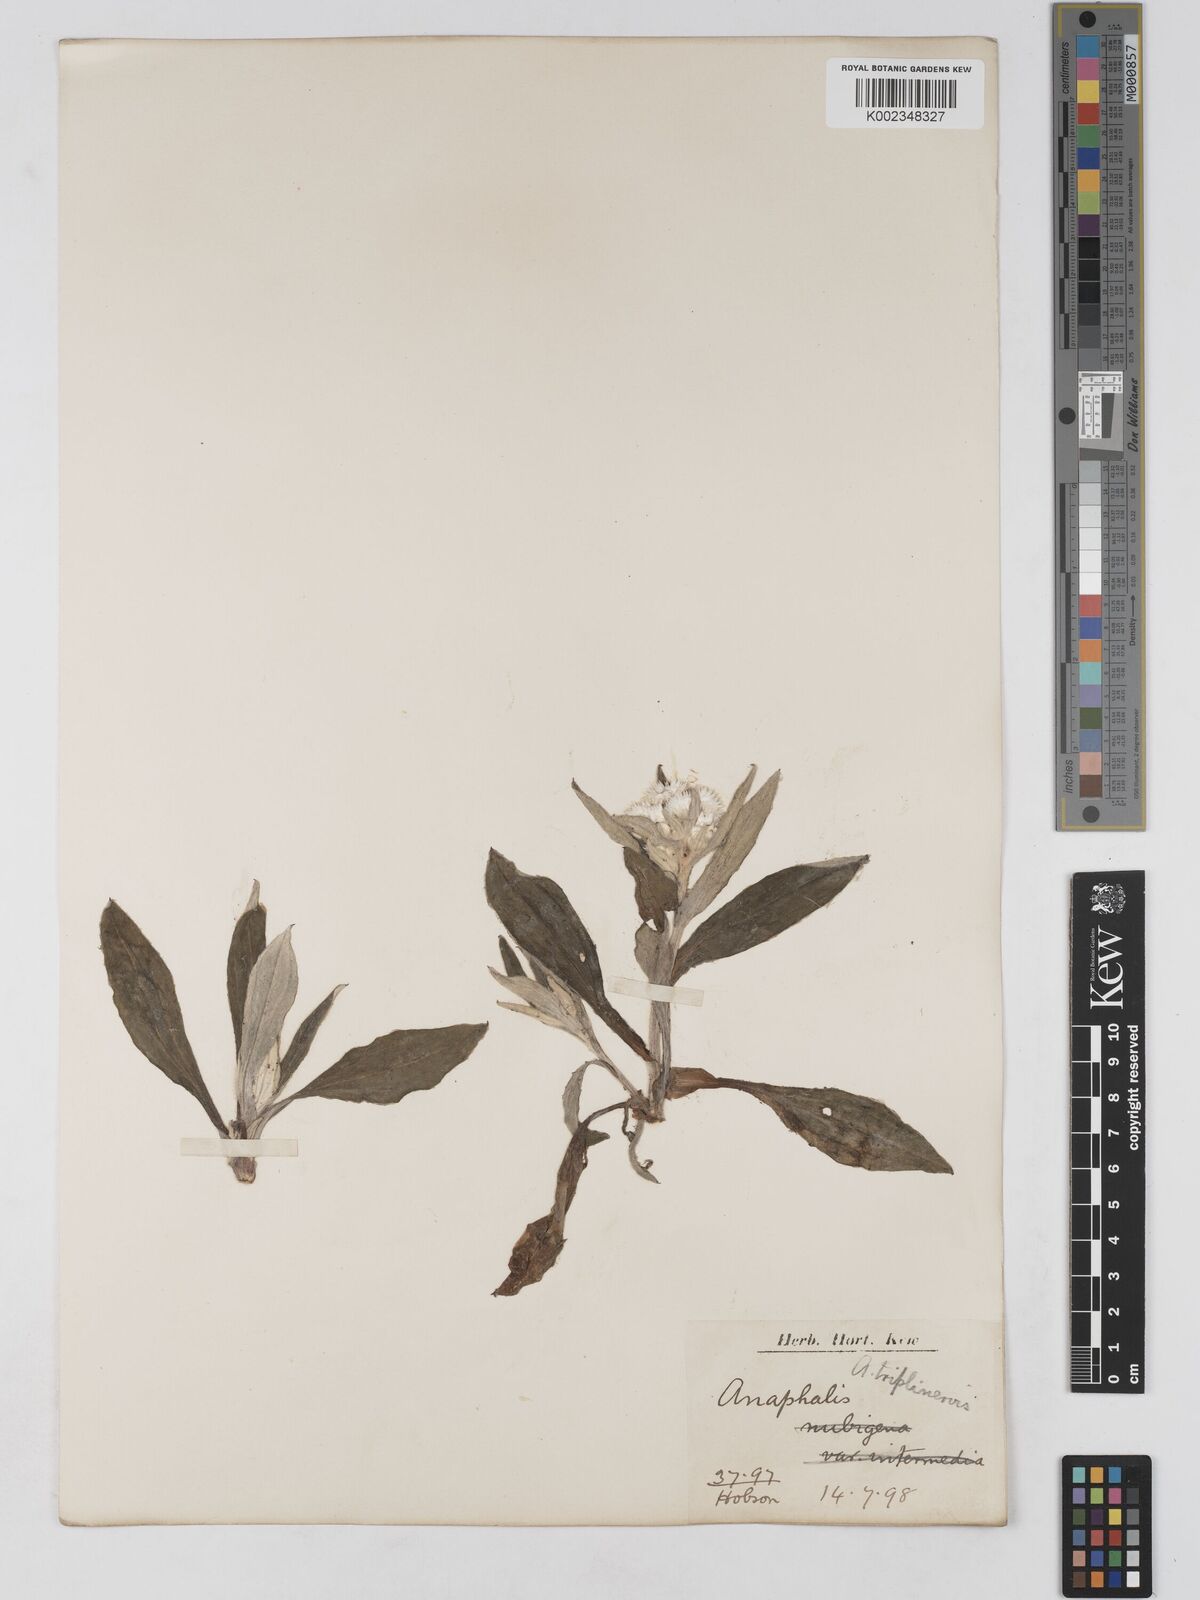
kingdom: Plantae
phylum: Tracheophyta
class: Magnoliopsida
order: Asterales
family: Asteraceae
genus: Anaphalis
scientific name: Anaphalis triplinervis
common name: Pearly everlasting
